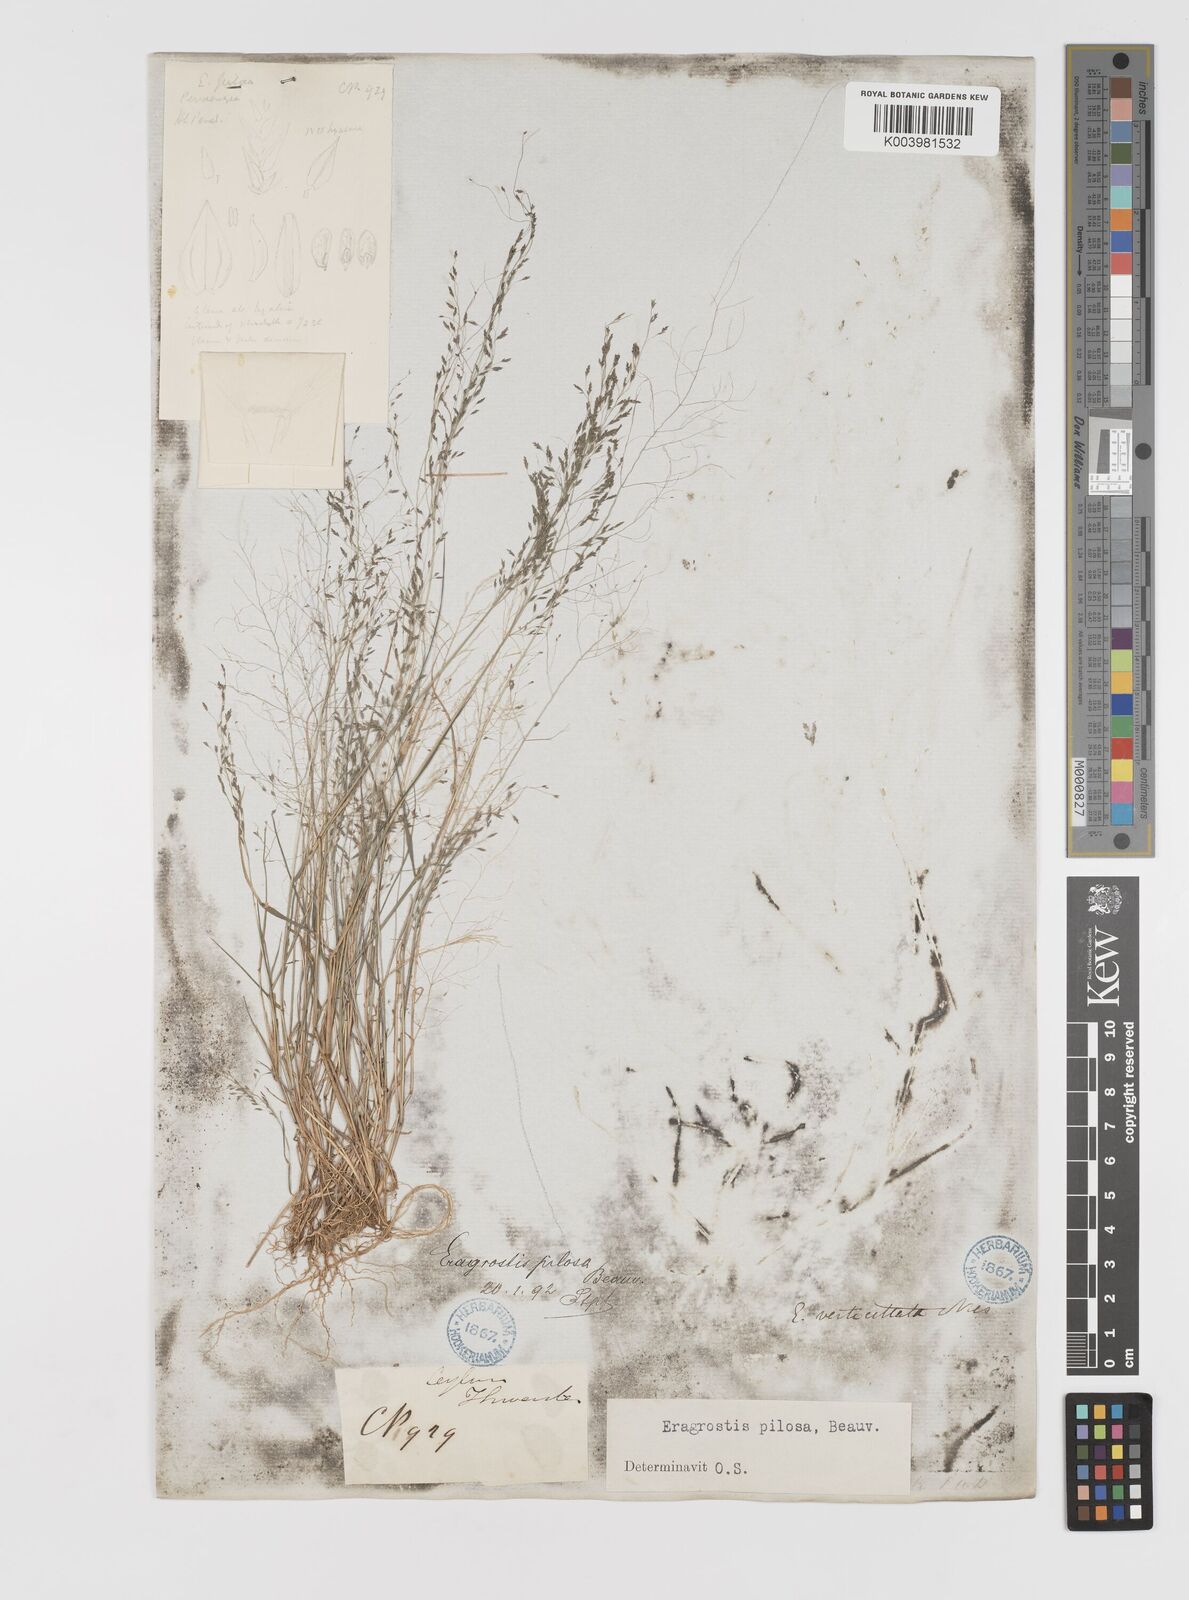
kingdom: Plantae
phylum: Tracheophyta
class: Liliopsida
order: Poales
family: Poaceae
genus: Eragrostis
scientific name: Eragrostis pilosa
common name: Indian lovegrass
